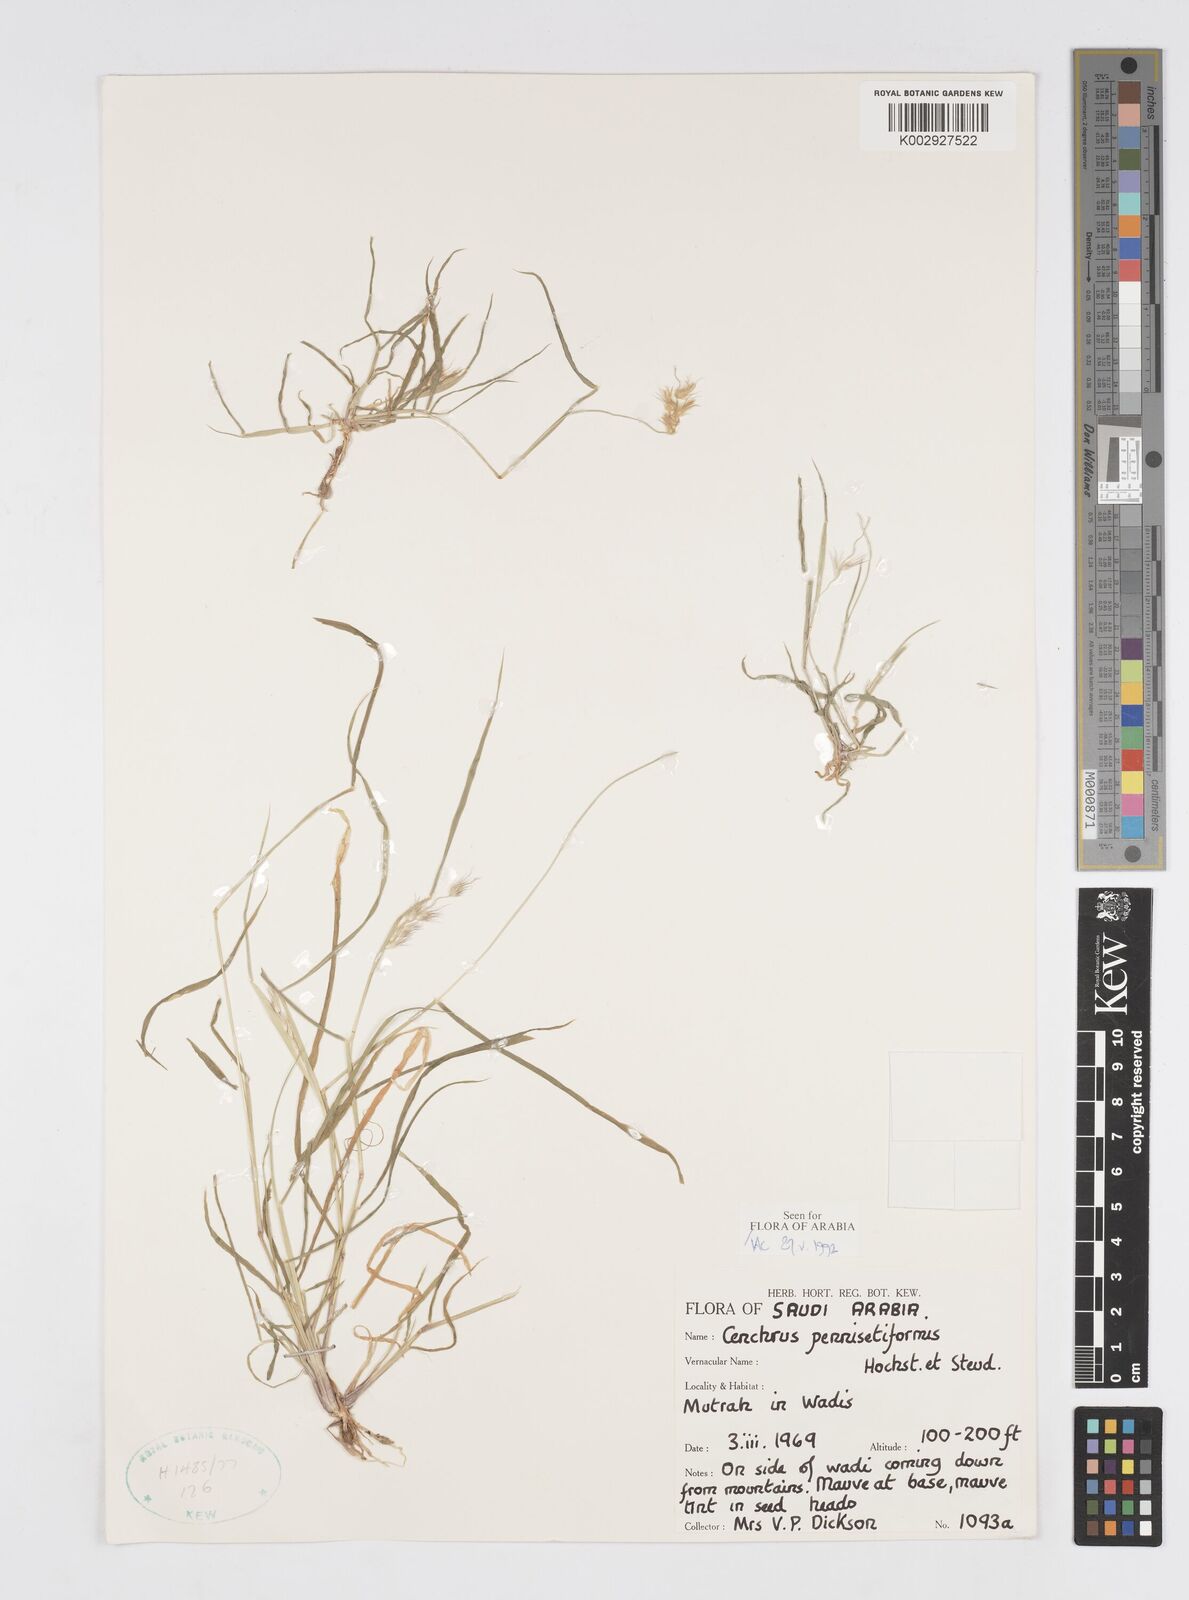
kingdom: Plantae
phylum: Tracheophyta
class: Liliopsida
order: Poales
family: Poaceae
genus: Cenchrus
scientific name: Cenchrus pennisetiformis
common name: Cloncurry
